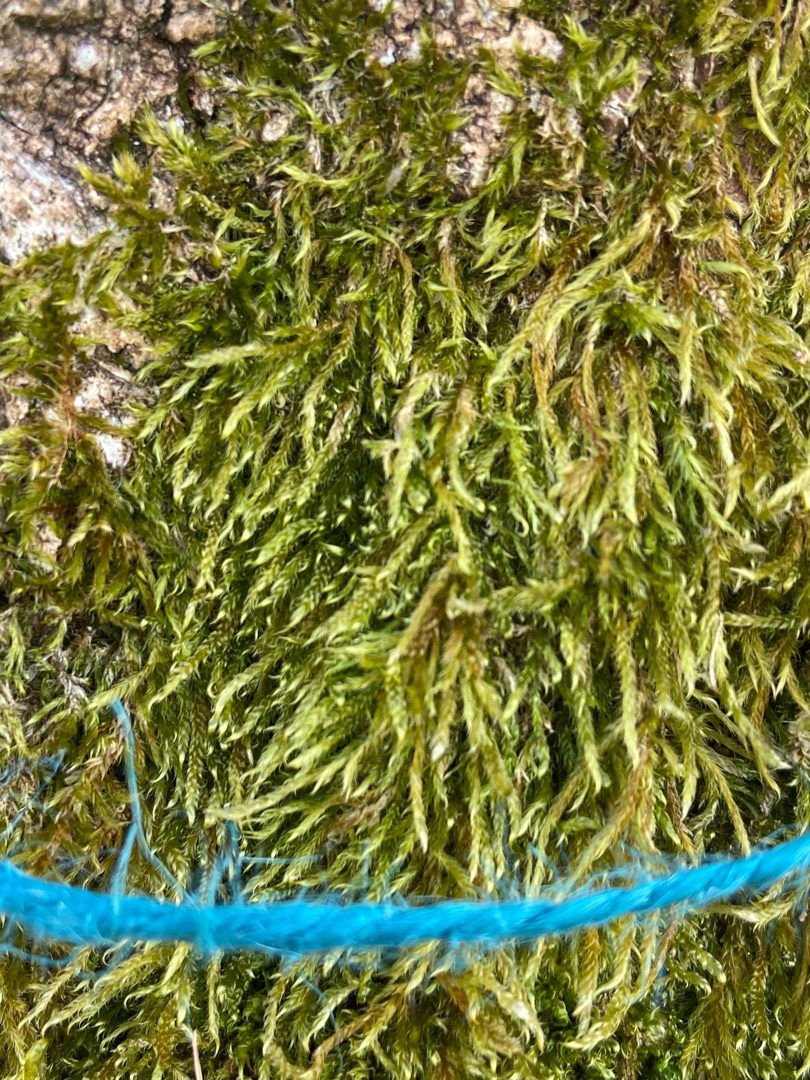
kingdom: Plantae
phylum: Bryophyta
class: Bryopsida
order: Hypnales
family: Hypnaceae
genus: Hypnum
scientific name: Hypnum cupressiforme
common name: Almindelig cypresmos
